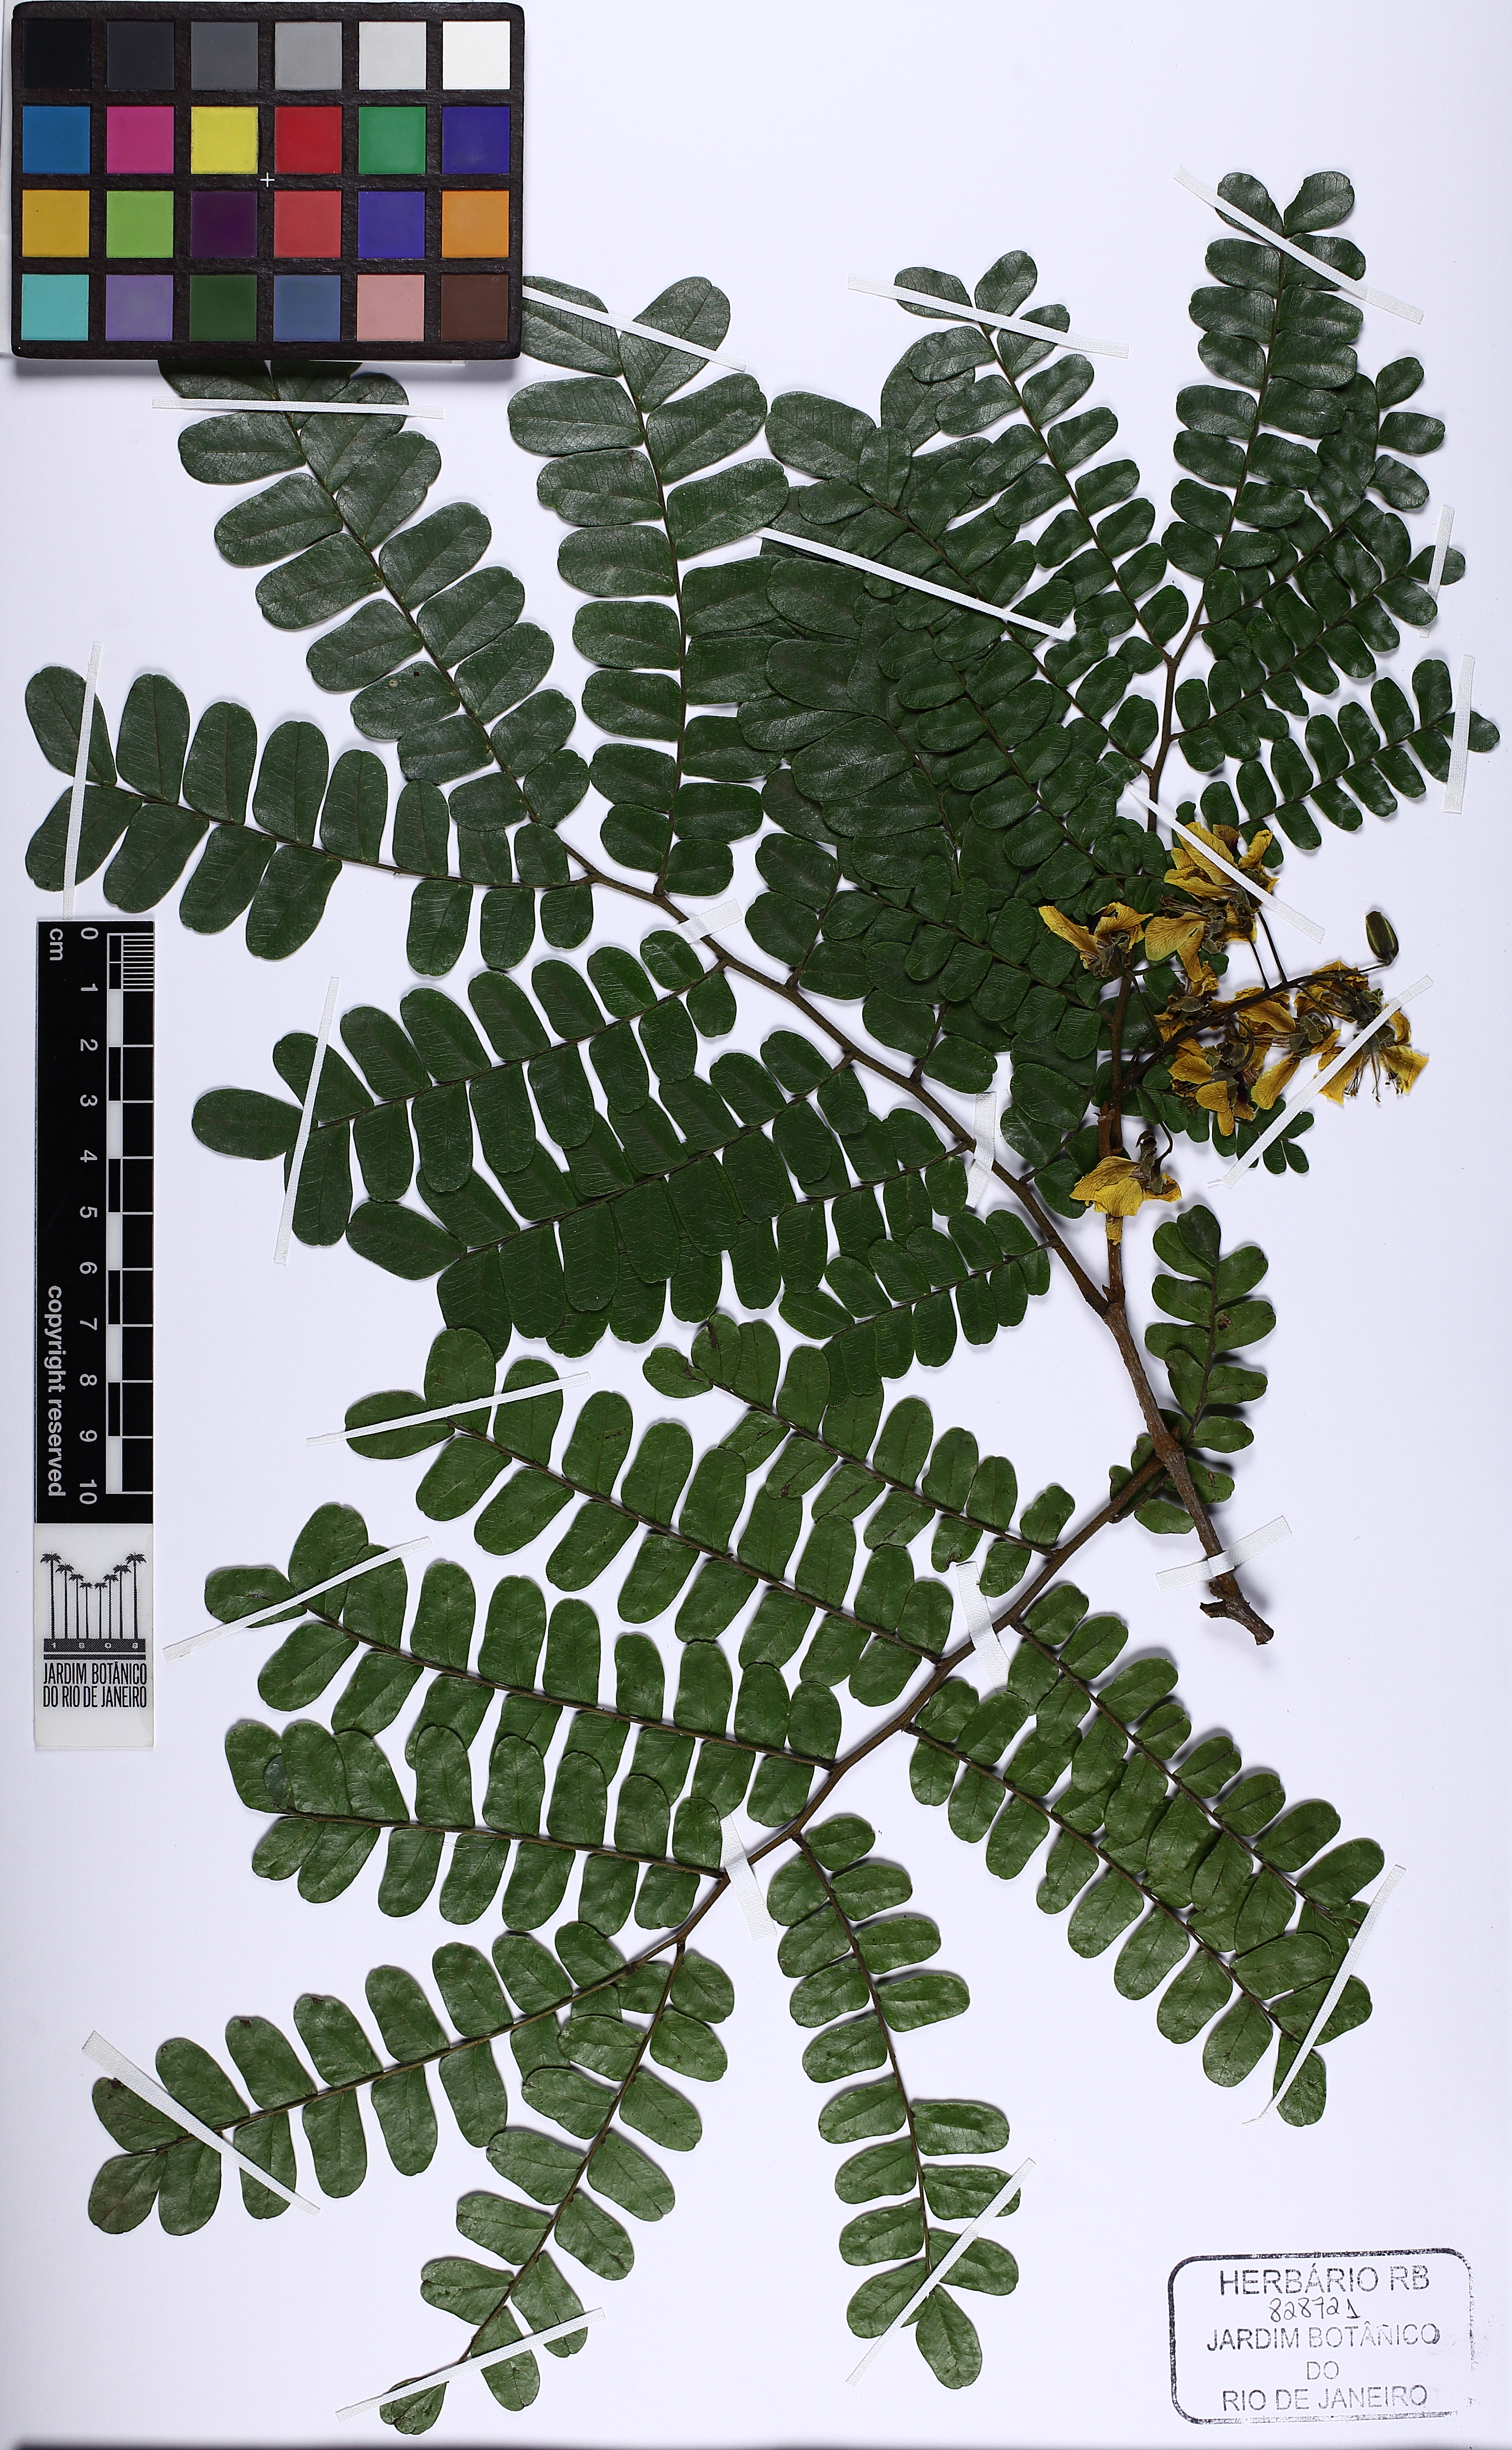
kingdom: Plantae
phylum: Tracheophyta
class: Magnoliopsida
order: Fabales
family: Fabaceae
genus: Paubrasilia
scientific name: Paubrasilia echinata
